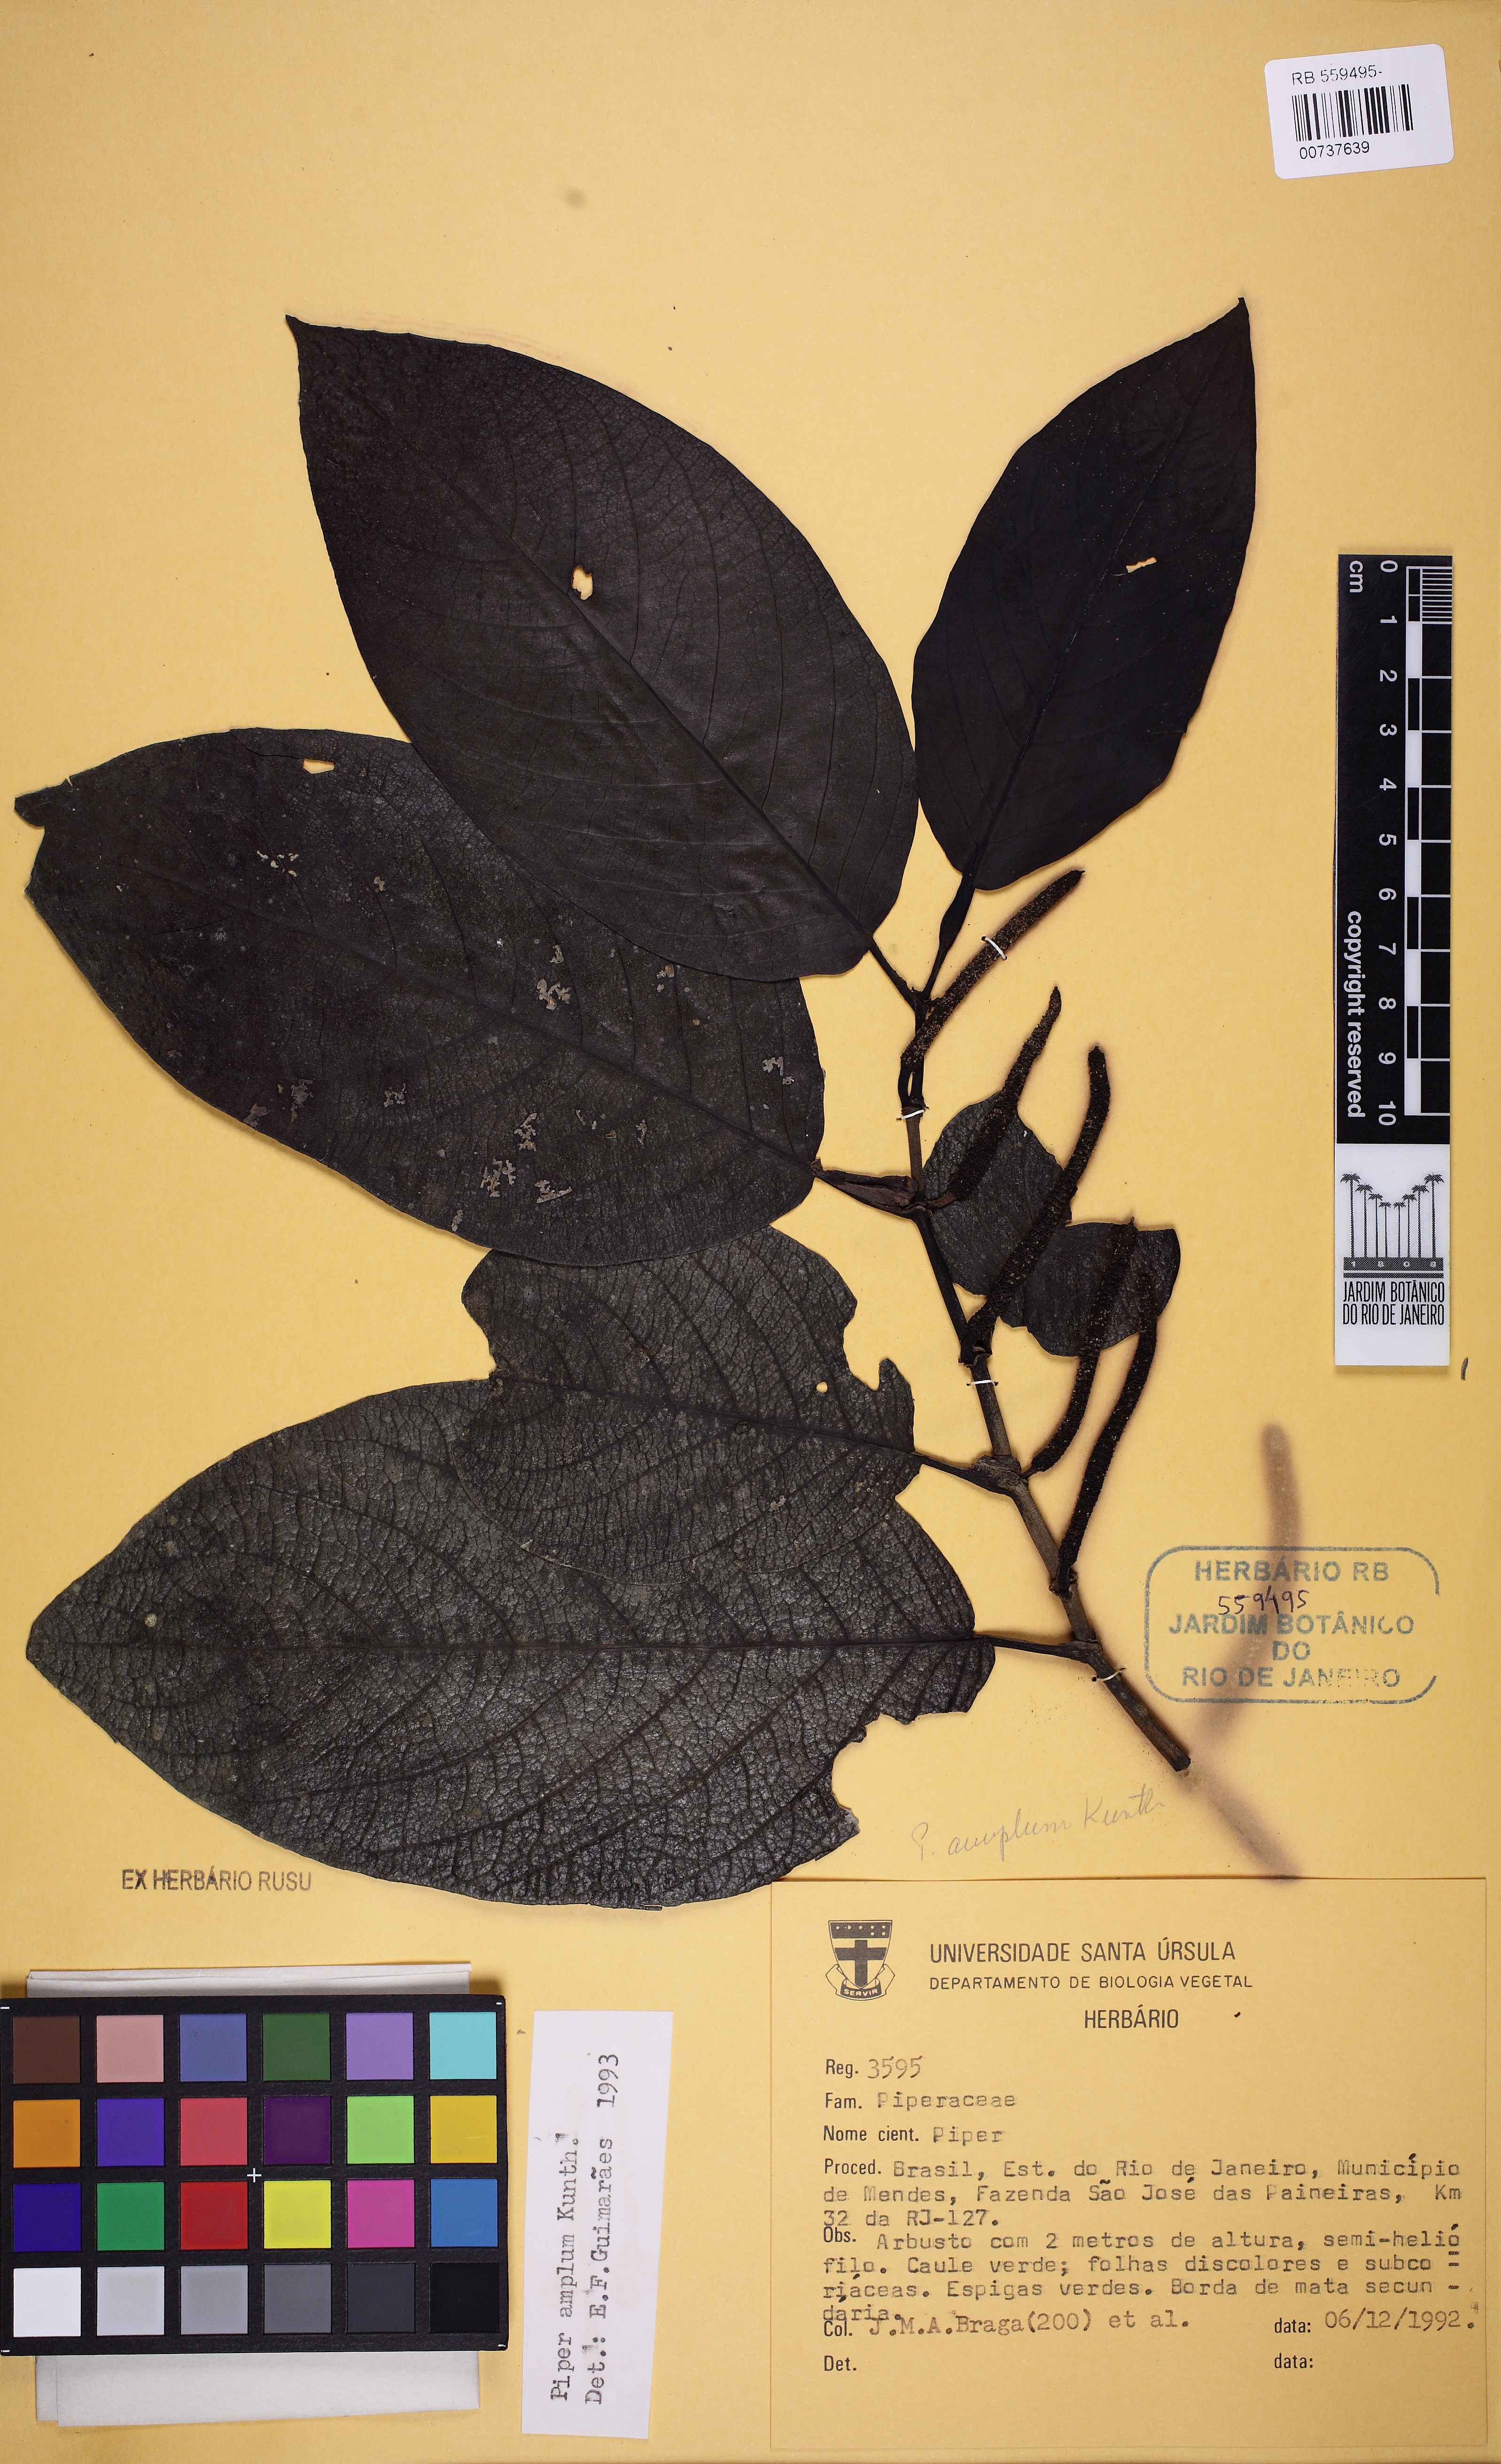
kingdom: Plantae
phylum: Tracheophyta
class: Magnoliopsida
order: Piperales
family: Piperaceae
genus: Piper
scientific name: Piper
